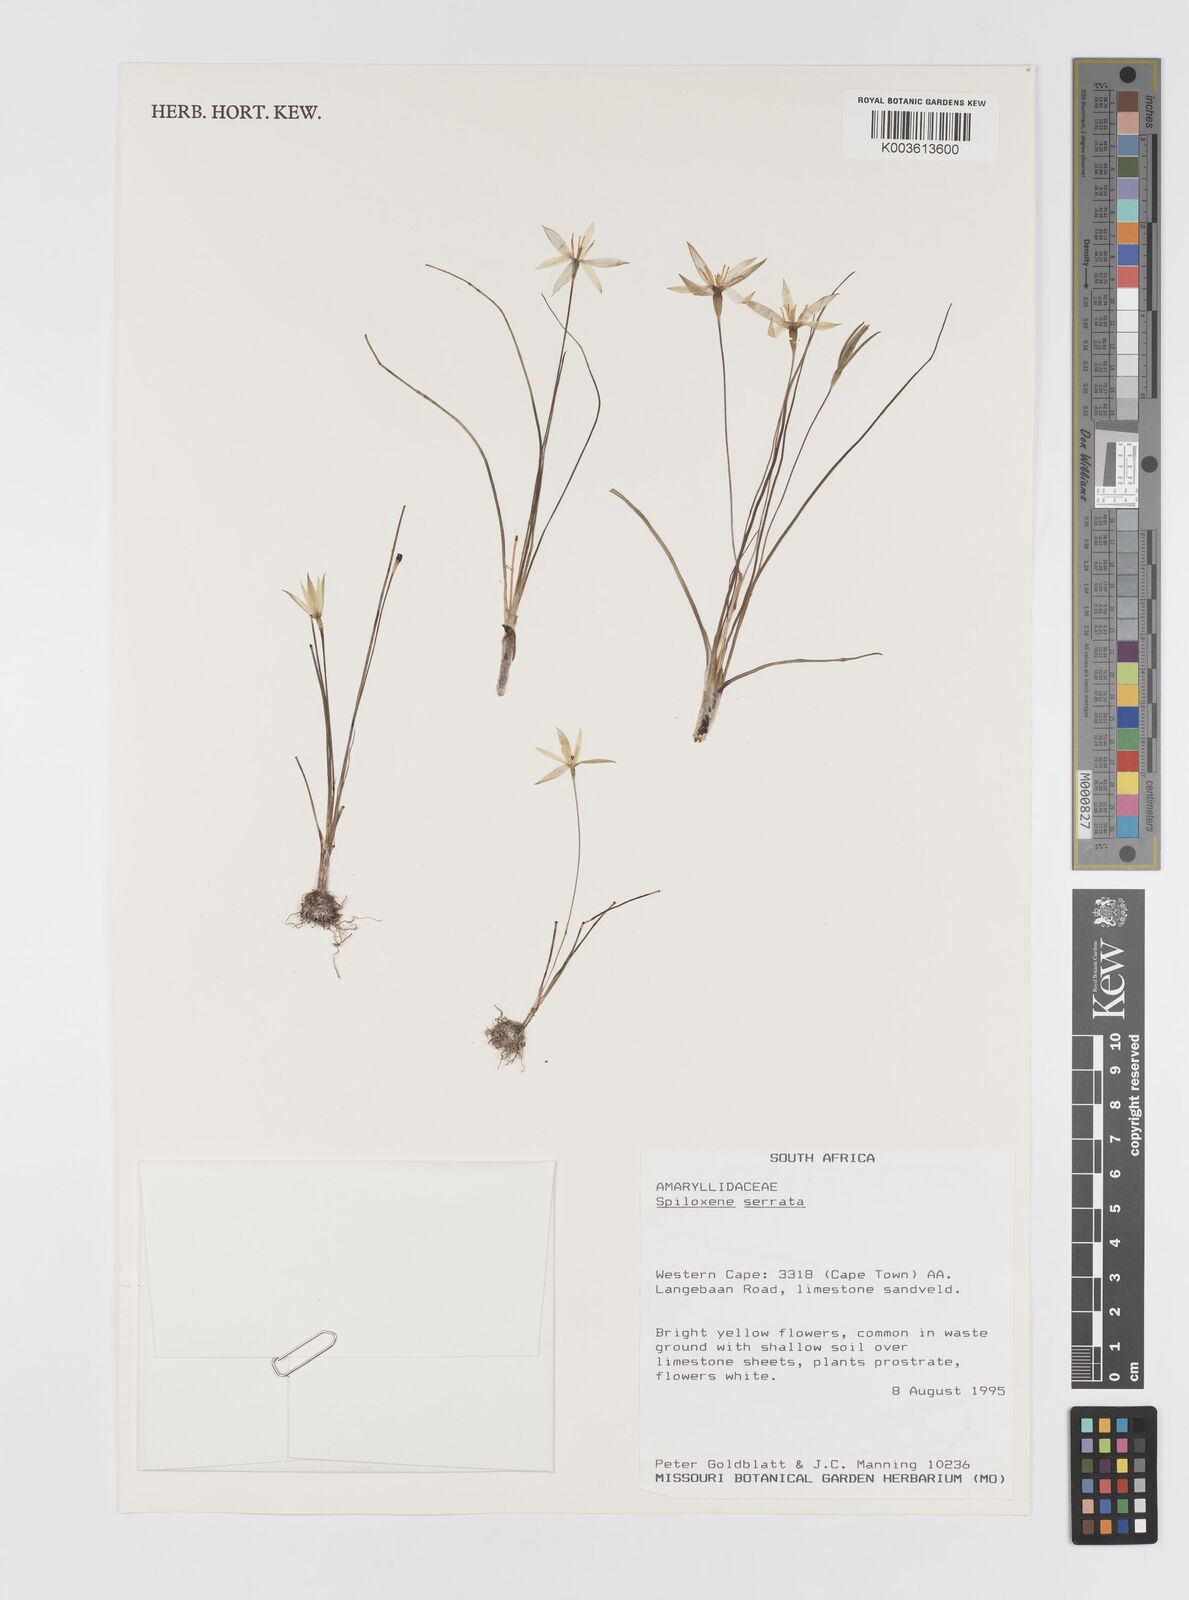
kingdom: Plantae
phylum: Tracheophyta
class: Liliopsida
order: Asparagales
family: Hypoxidaceae
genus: Pauridia
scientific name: Pauridia serrata
